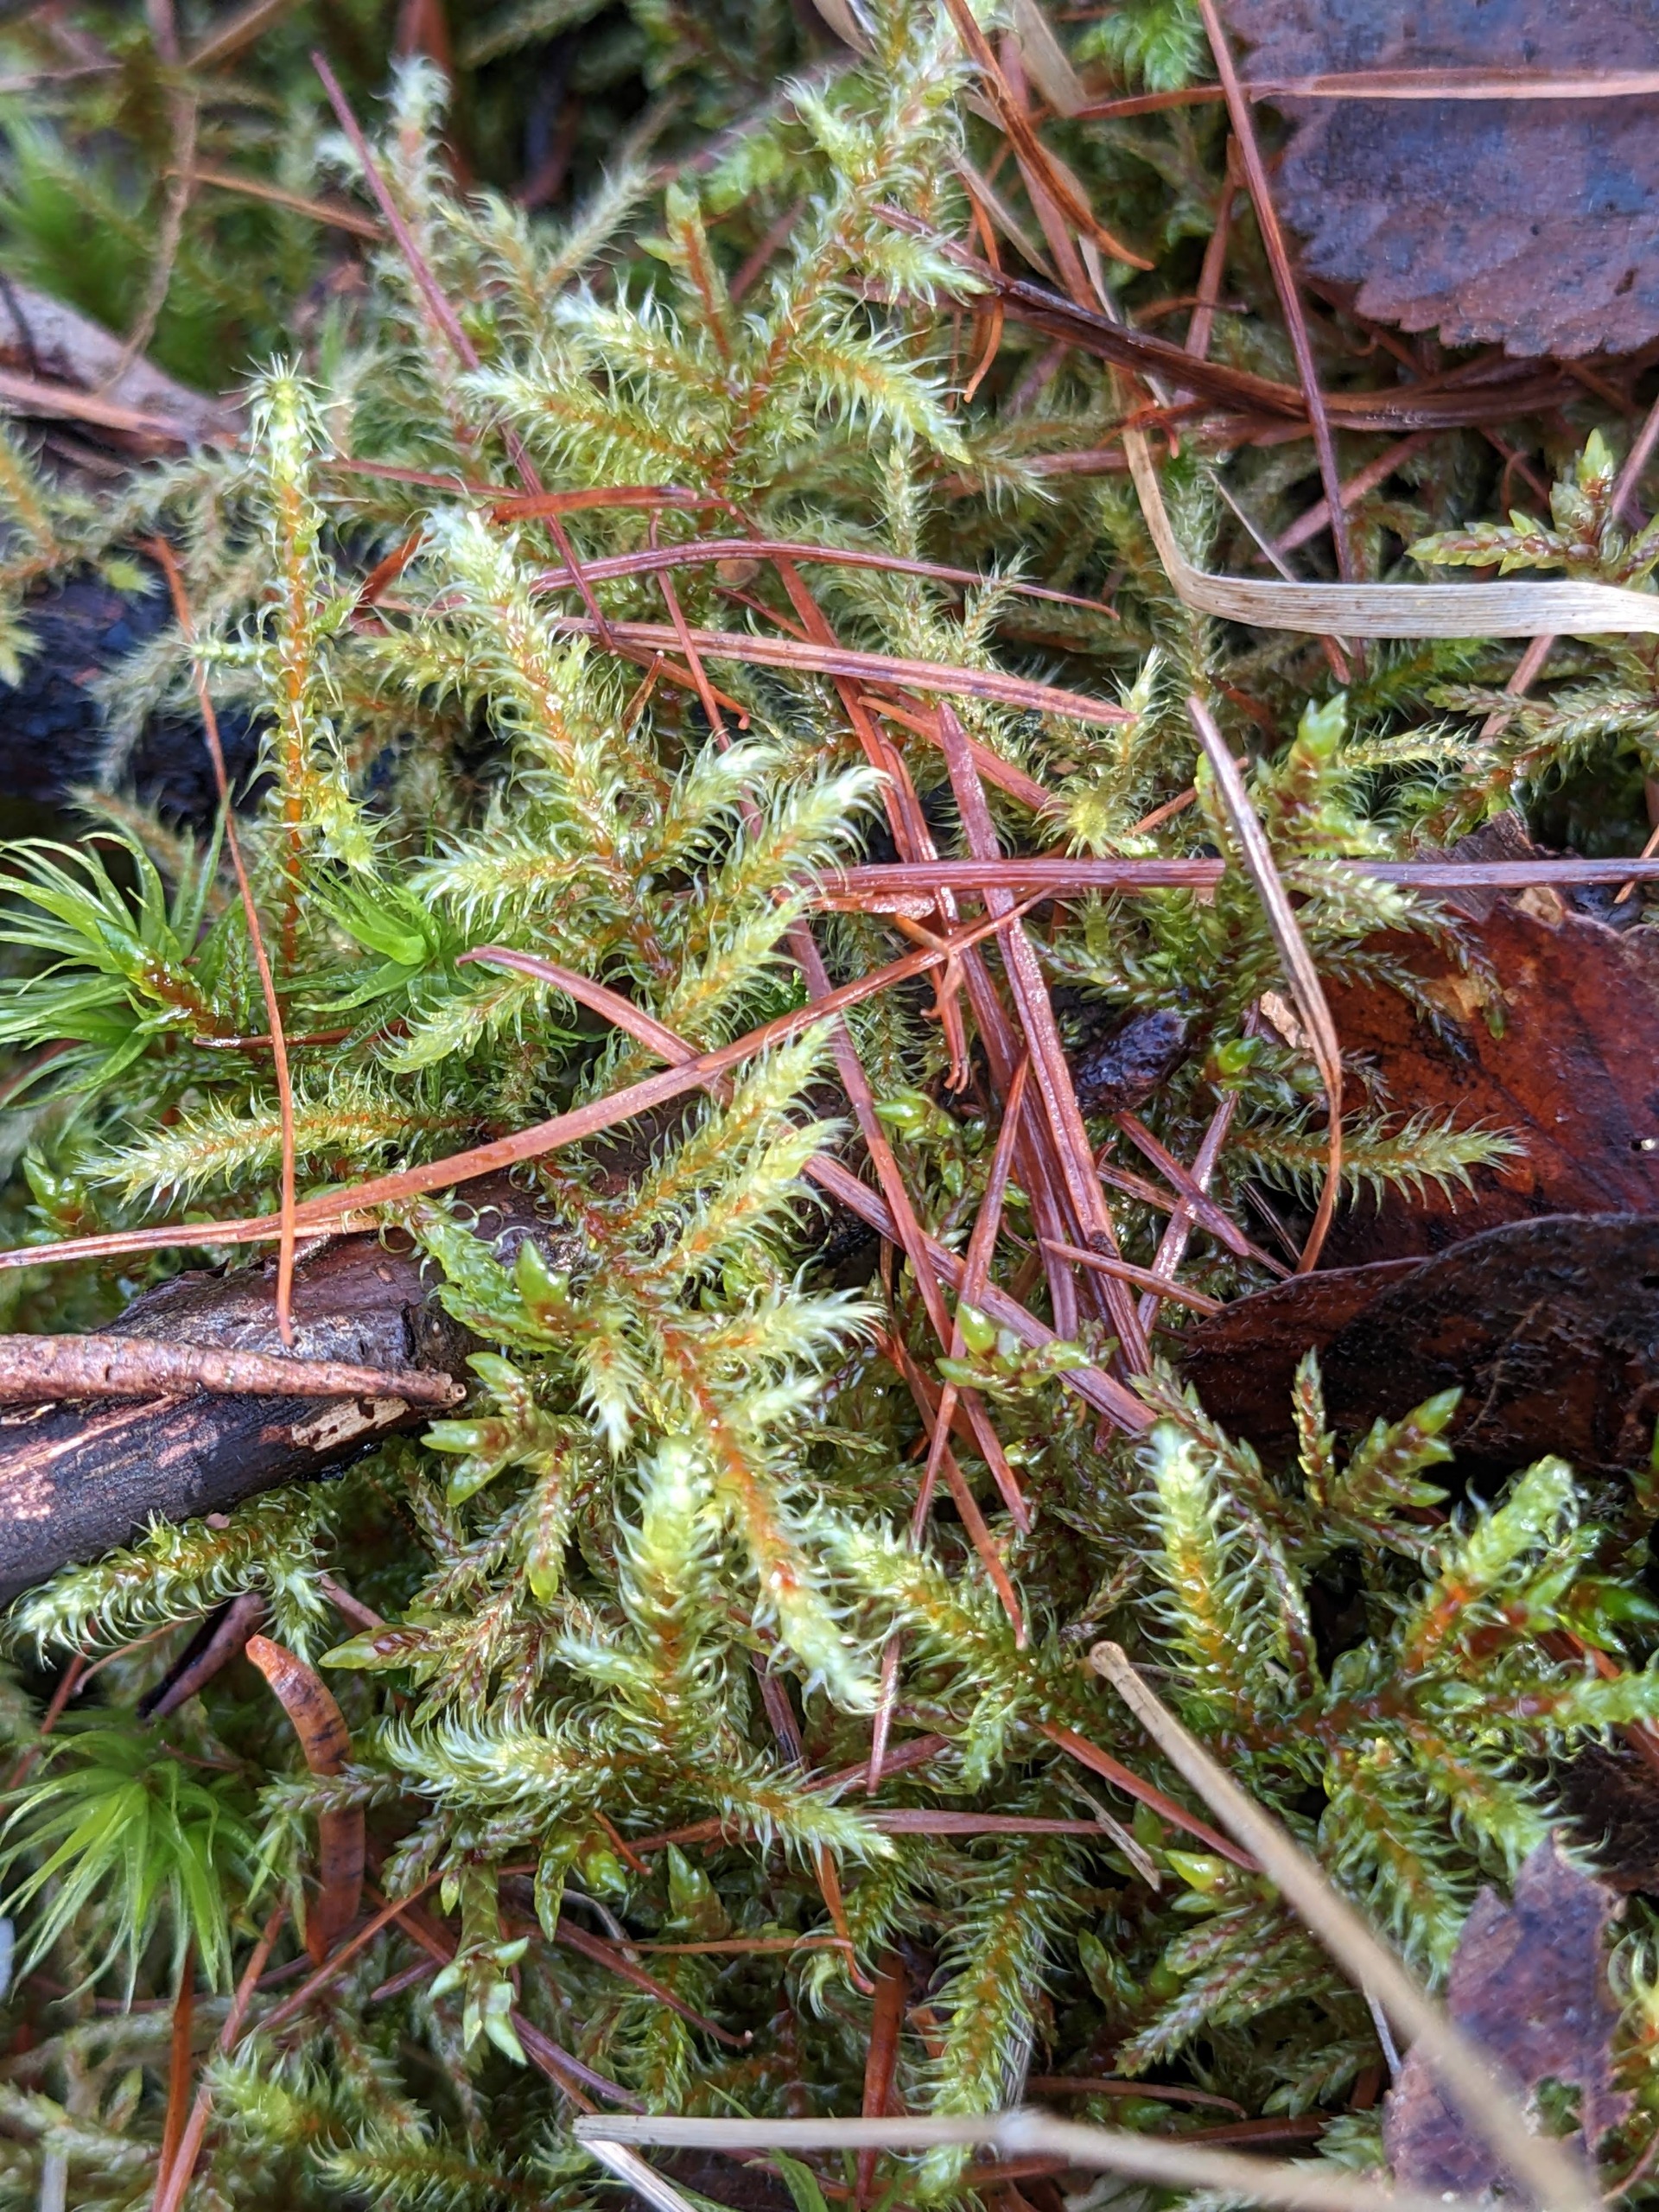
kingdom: Plantae
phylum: Bryophyta
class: Bryopsida
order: Hypnales
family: Hylocomiaceae
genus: Rhytidiadelphus
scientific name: Rhytidiadelphus loreus
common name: Ulvefod-kransemos
